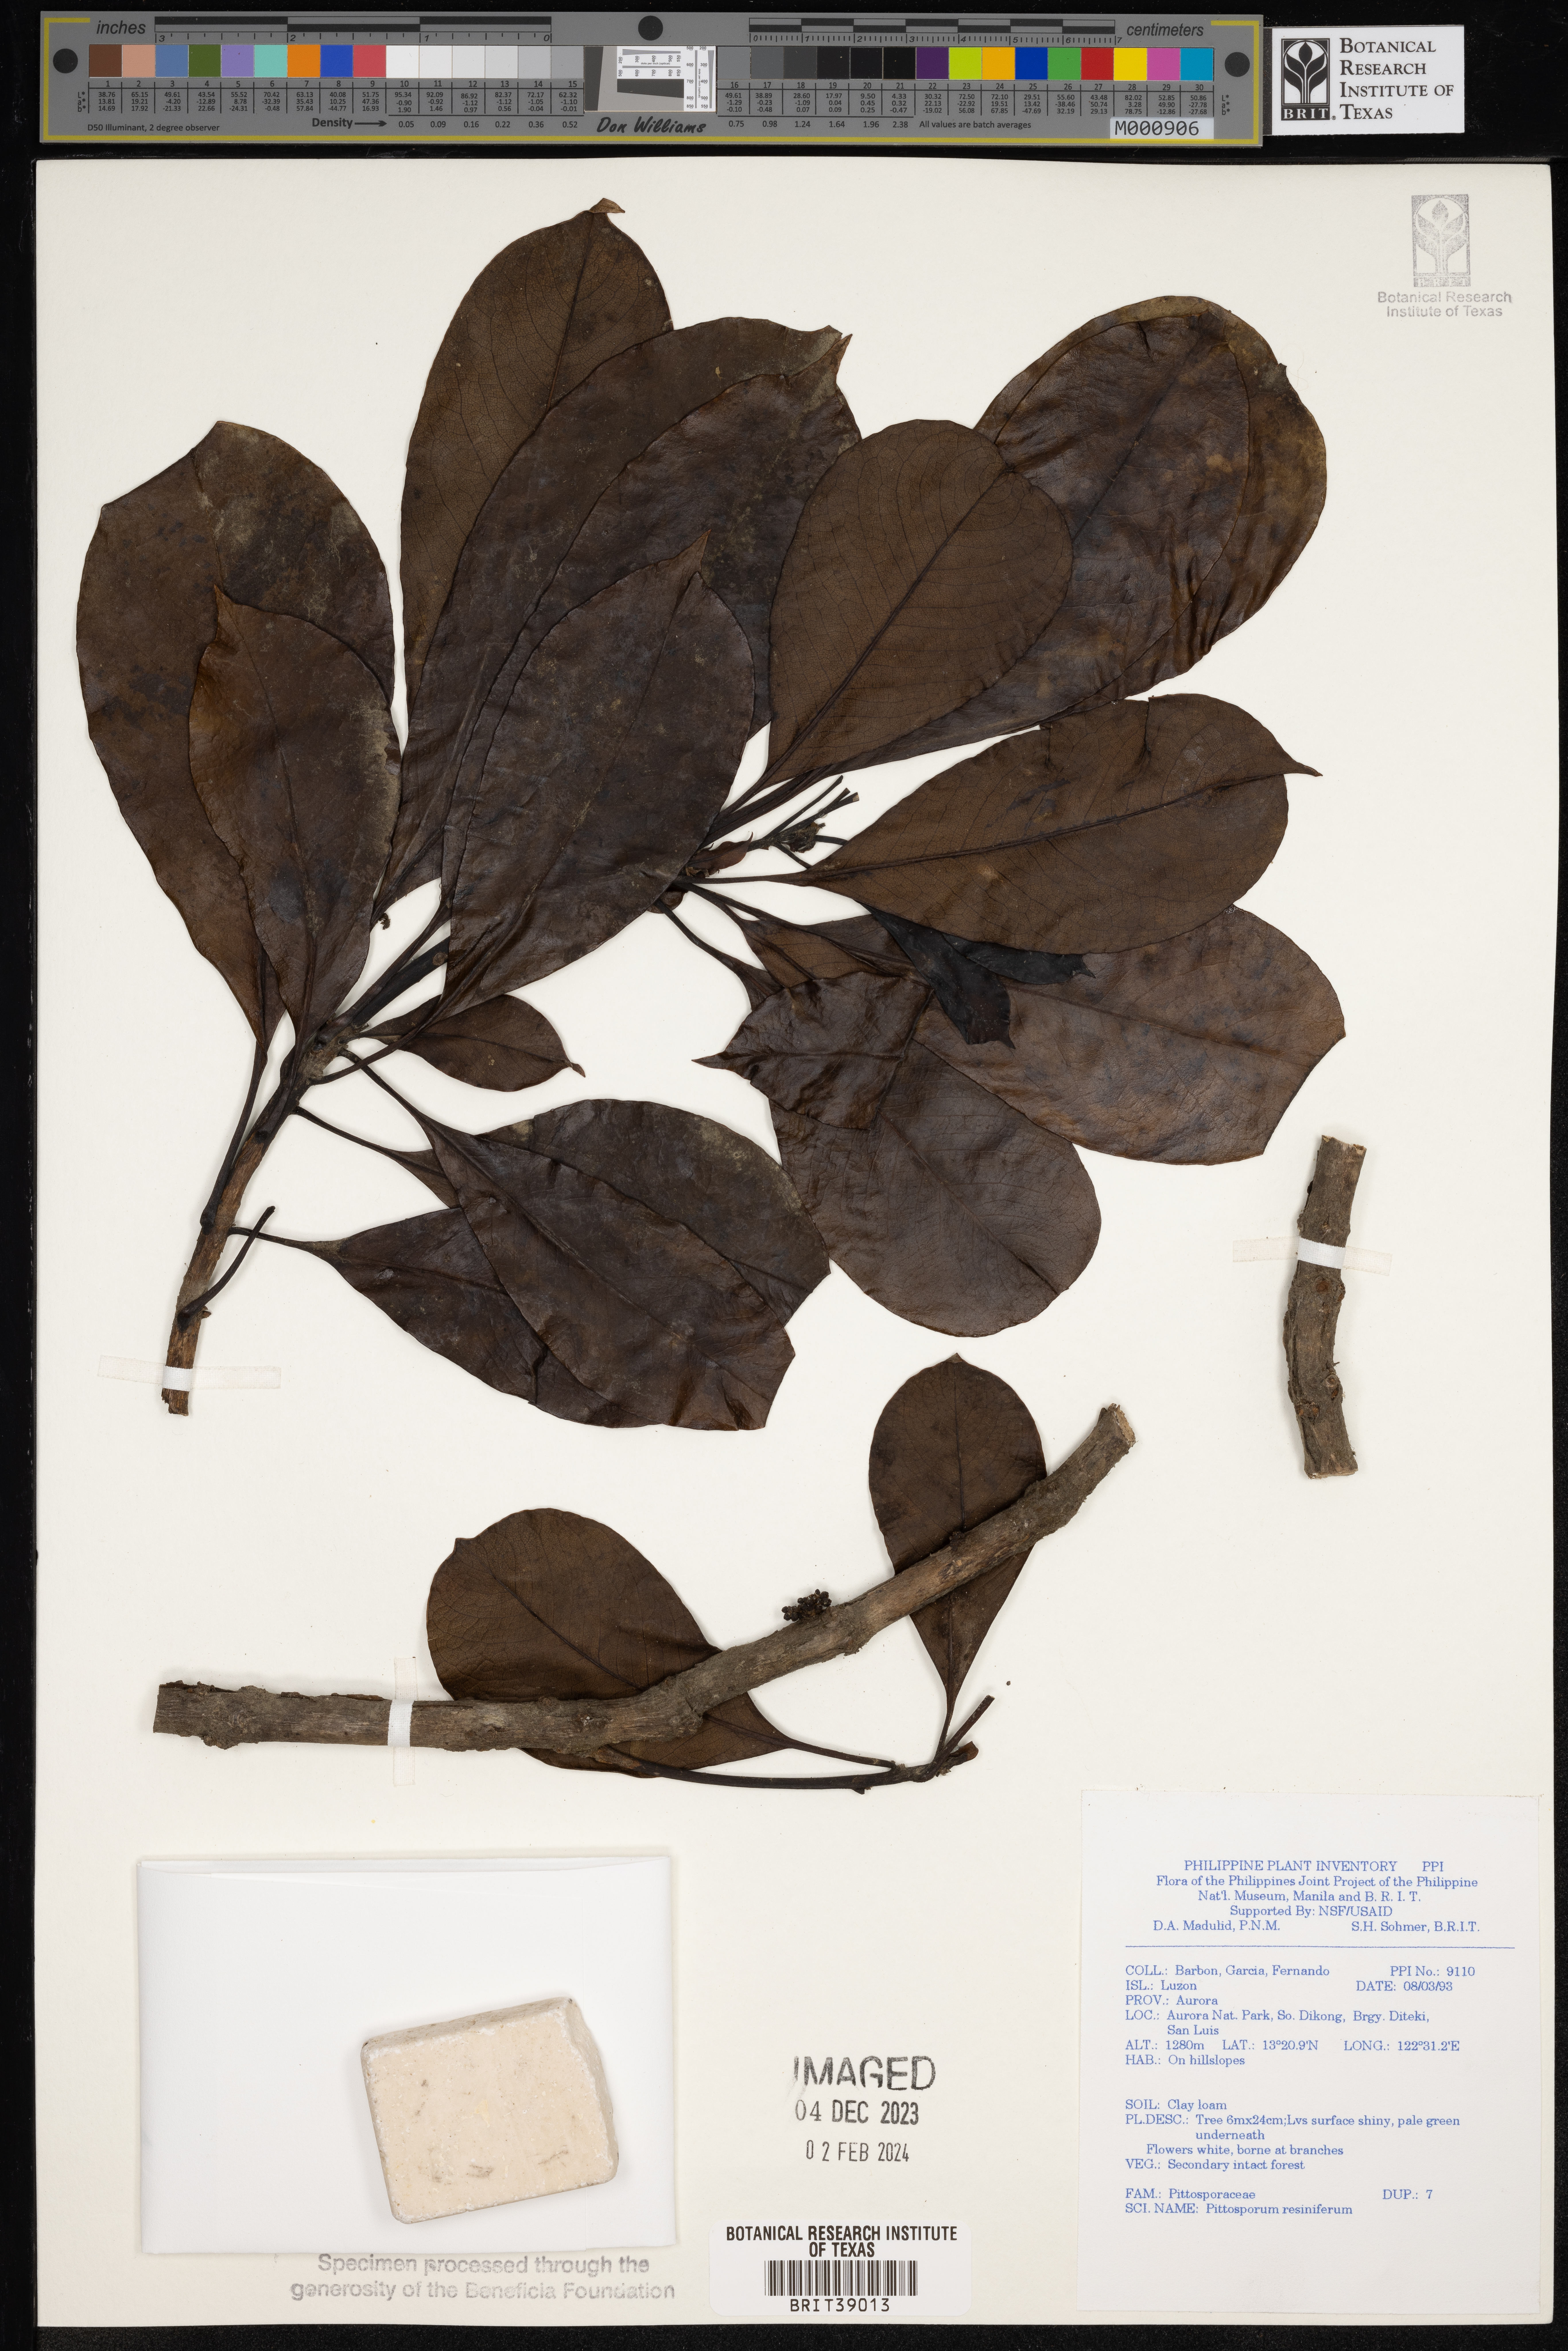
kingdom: Plantae
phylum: Tracheophyta
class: Magnoliopsida
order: Apiales
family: Pittosporaceae
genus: Pittosporum
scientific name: Pittosporum resiniferum
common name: Petroleum-nut
